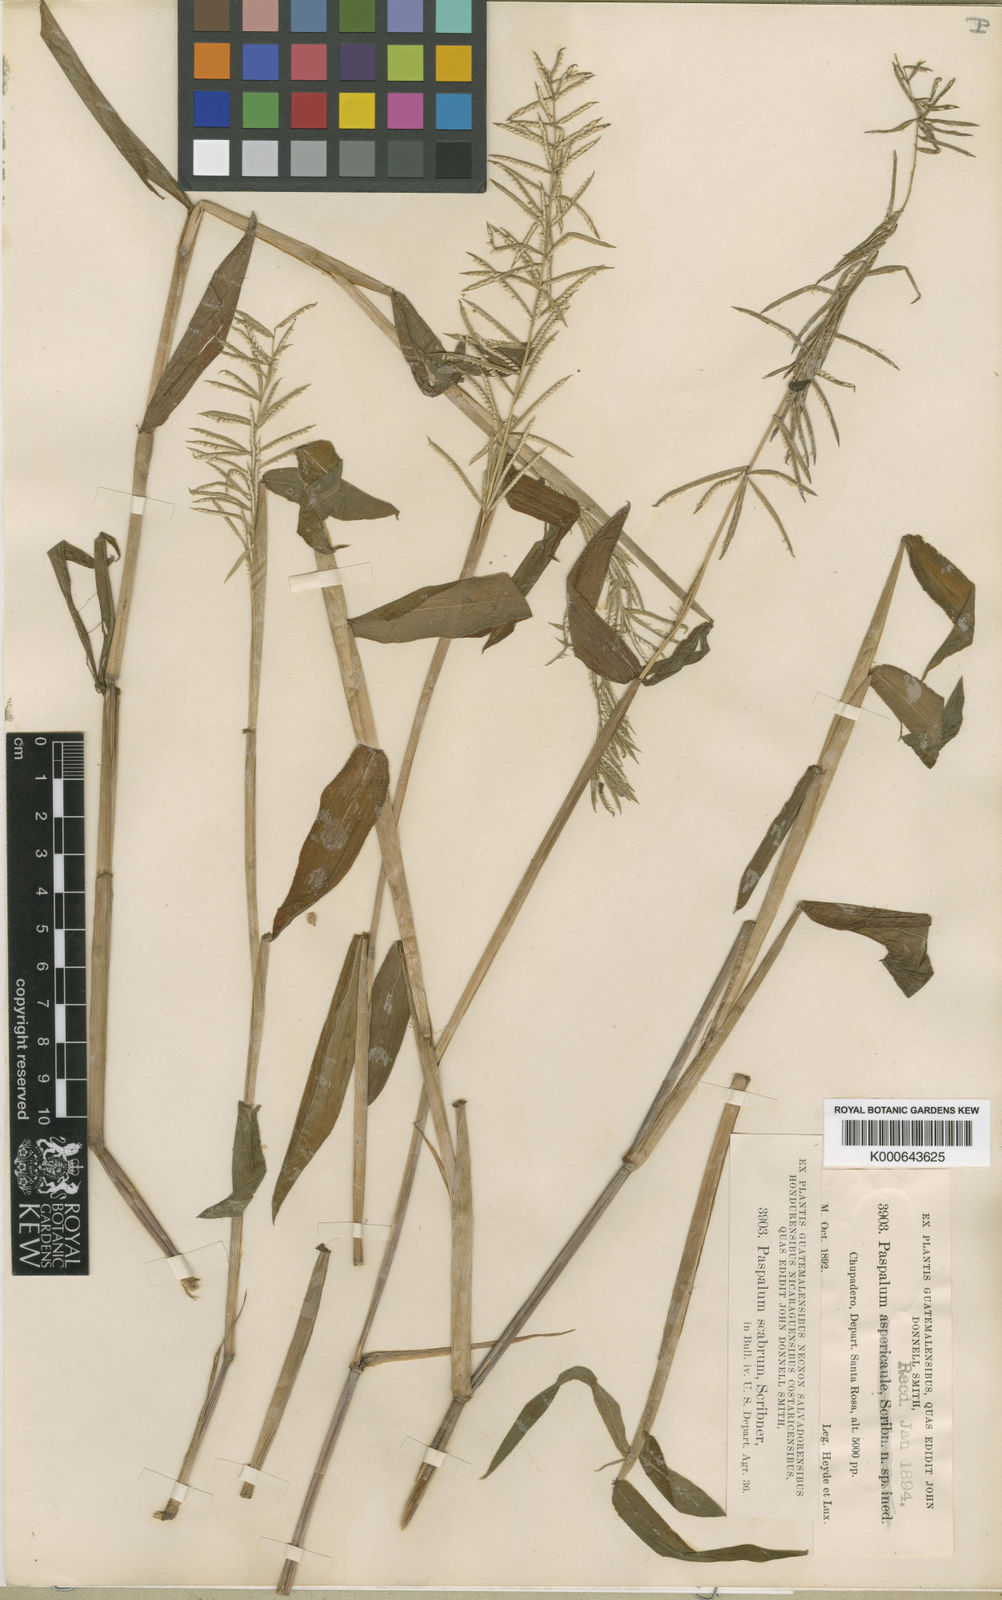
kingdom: Plantae
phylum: Tracheophyta
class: Liliopsida
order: Poales
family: Poaceae
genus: Paspalum
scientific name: Paspalum candidum
